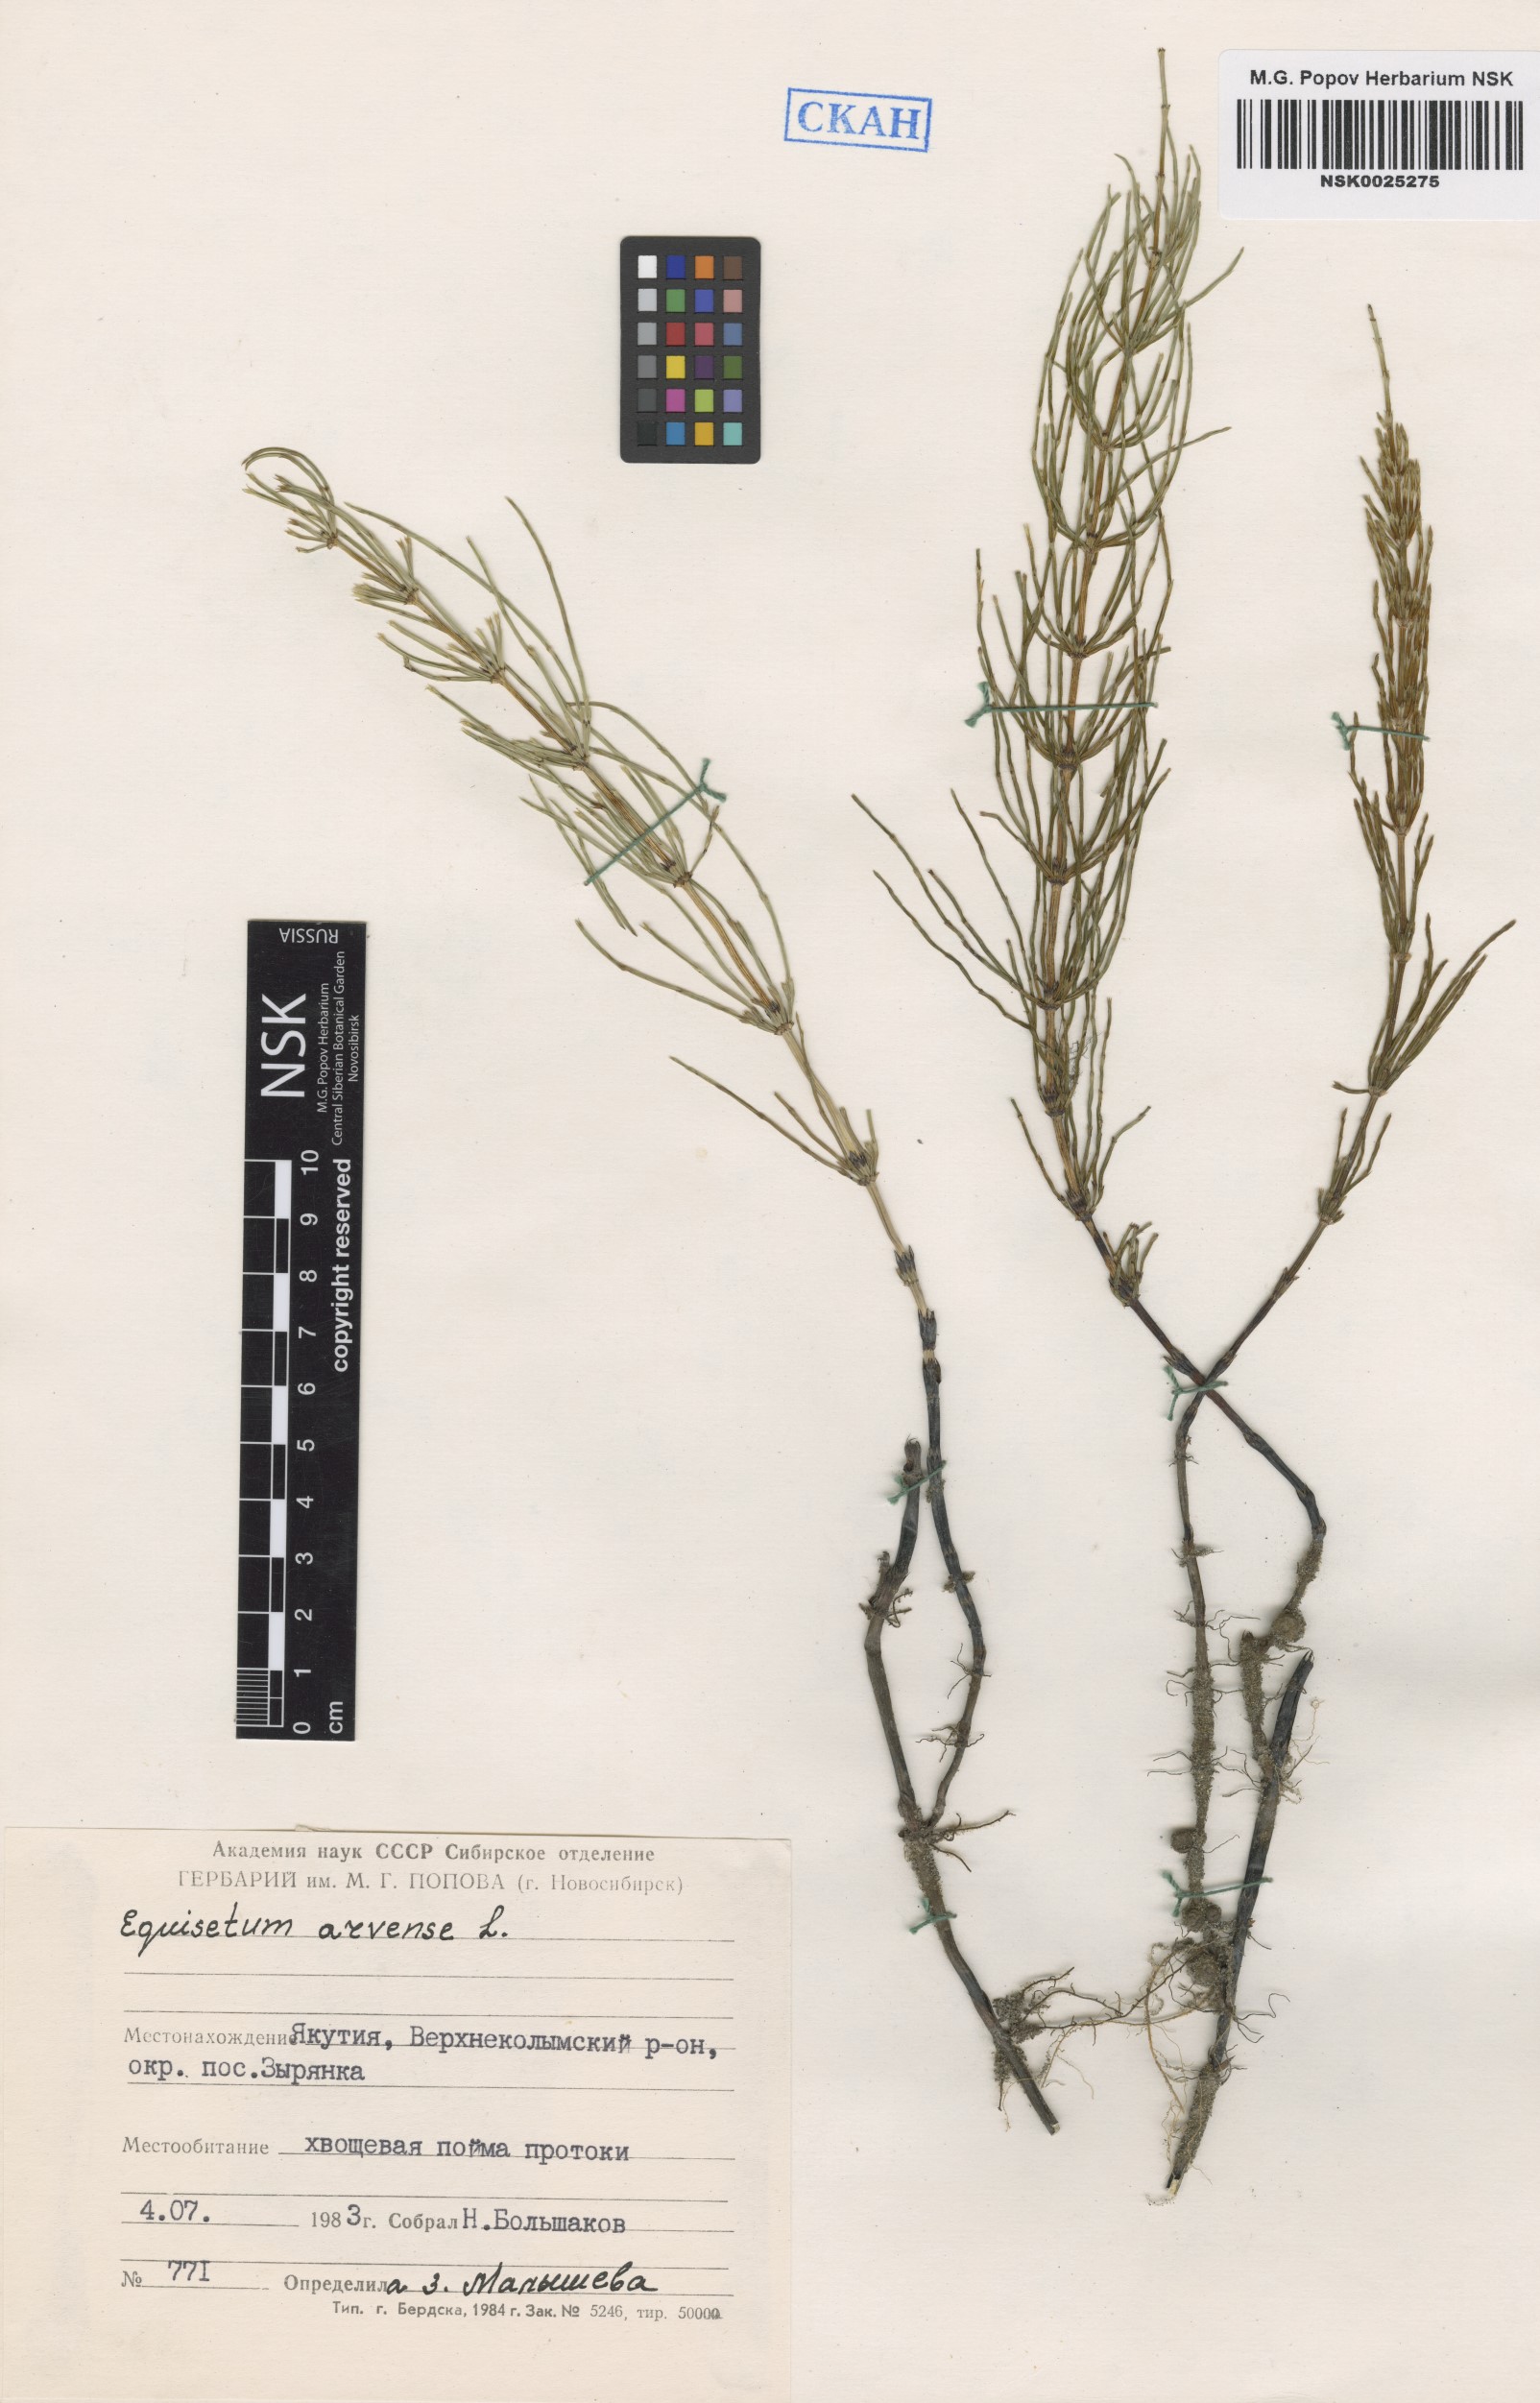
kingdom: Plantae
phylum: Tracheophyta
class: Polypodiopsida
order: Equisetales
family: Equisetaceae
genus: Equisetum
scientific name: Equisetum arvense
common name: Field horsetail
